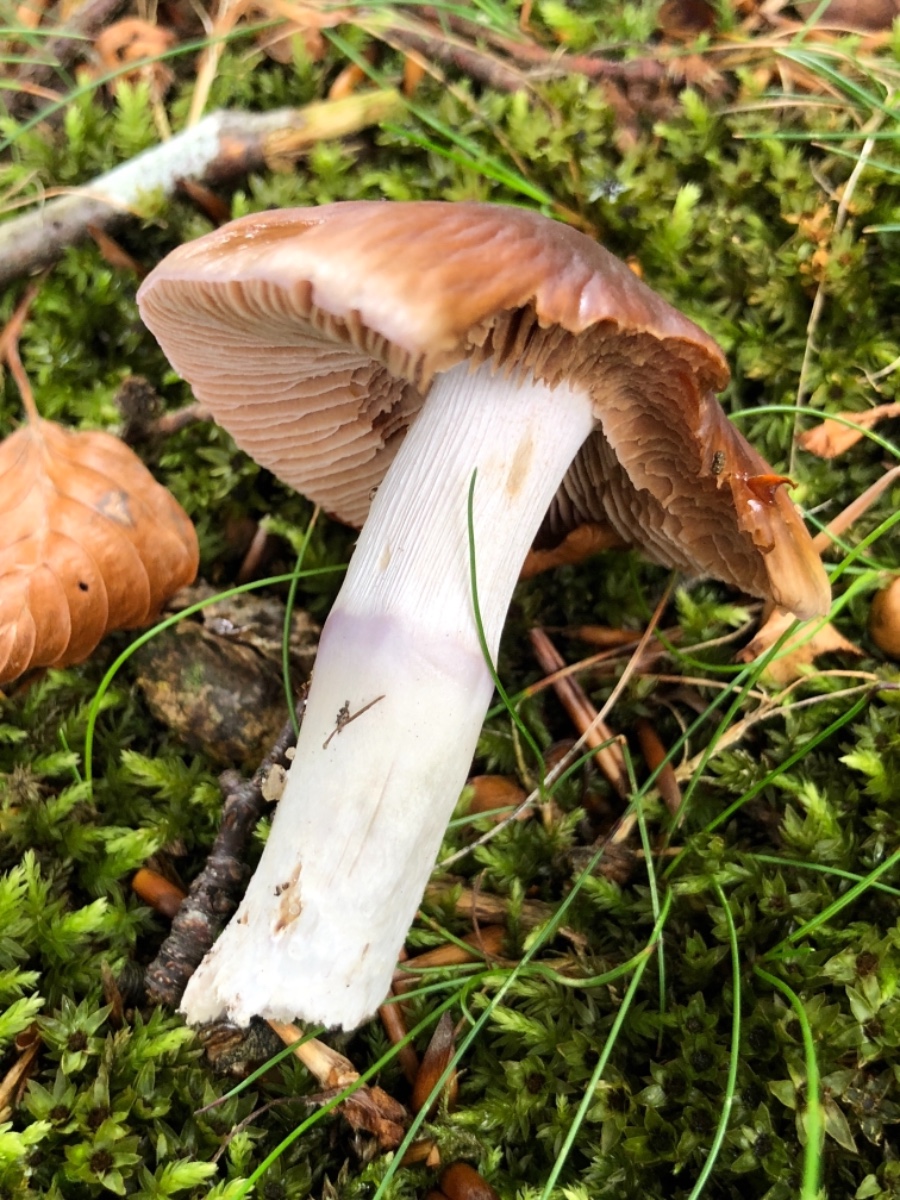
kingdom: Fungi
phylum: Basidiomycota
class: Agaricomycetes
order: Agaricales
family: Cortinariaceae
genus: Cortinarius
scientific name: Cortinarius elatior
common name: høj slørhat
